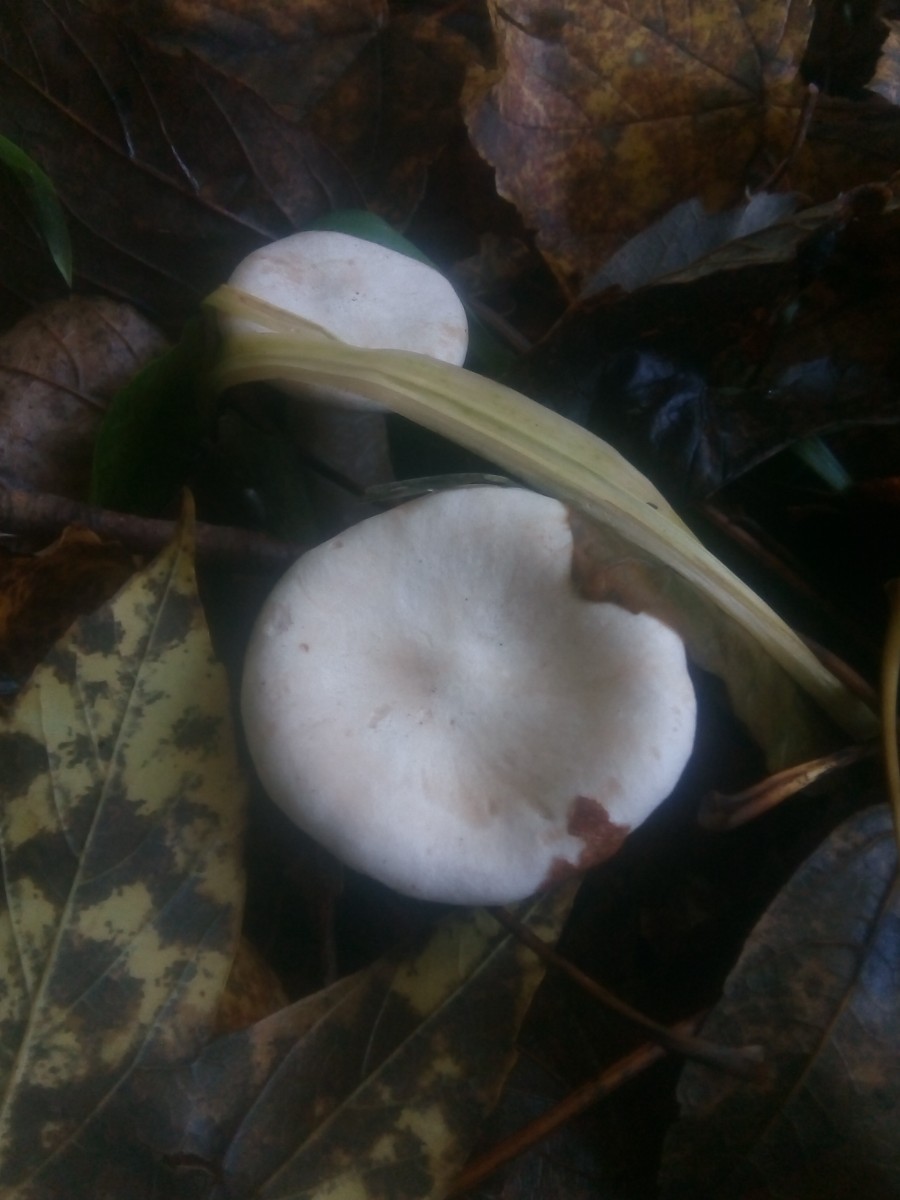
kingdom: Fungi
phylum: Basidiomycota
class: Agaricomycetes
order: Agaricales
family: Tricholomataceae
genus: Infundibulicybe
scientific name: Infundibulicybe geotropa
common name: stor tragthat
